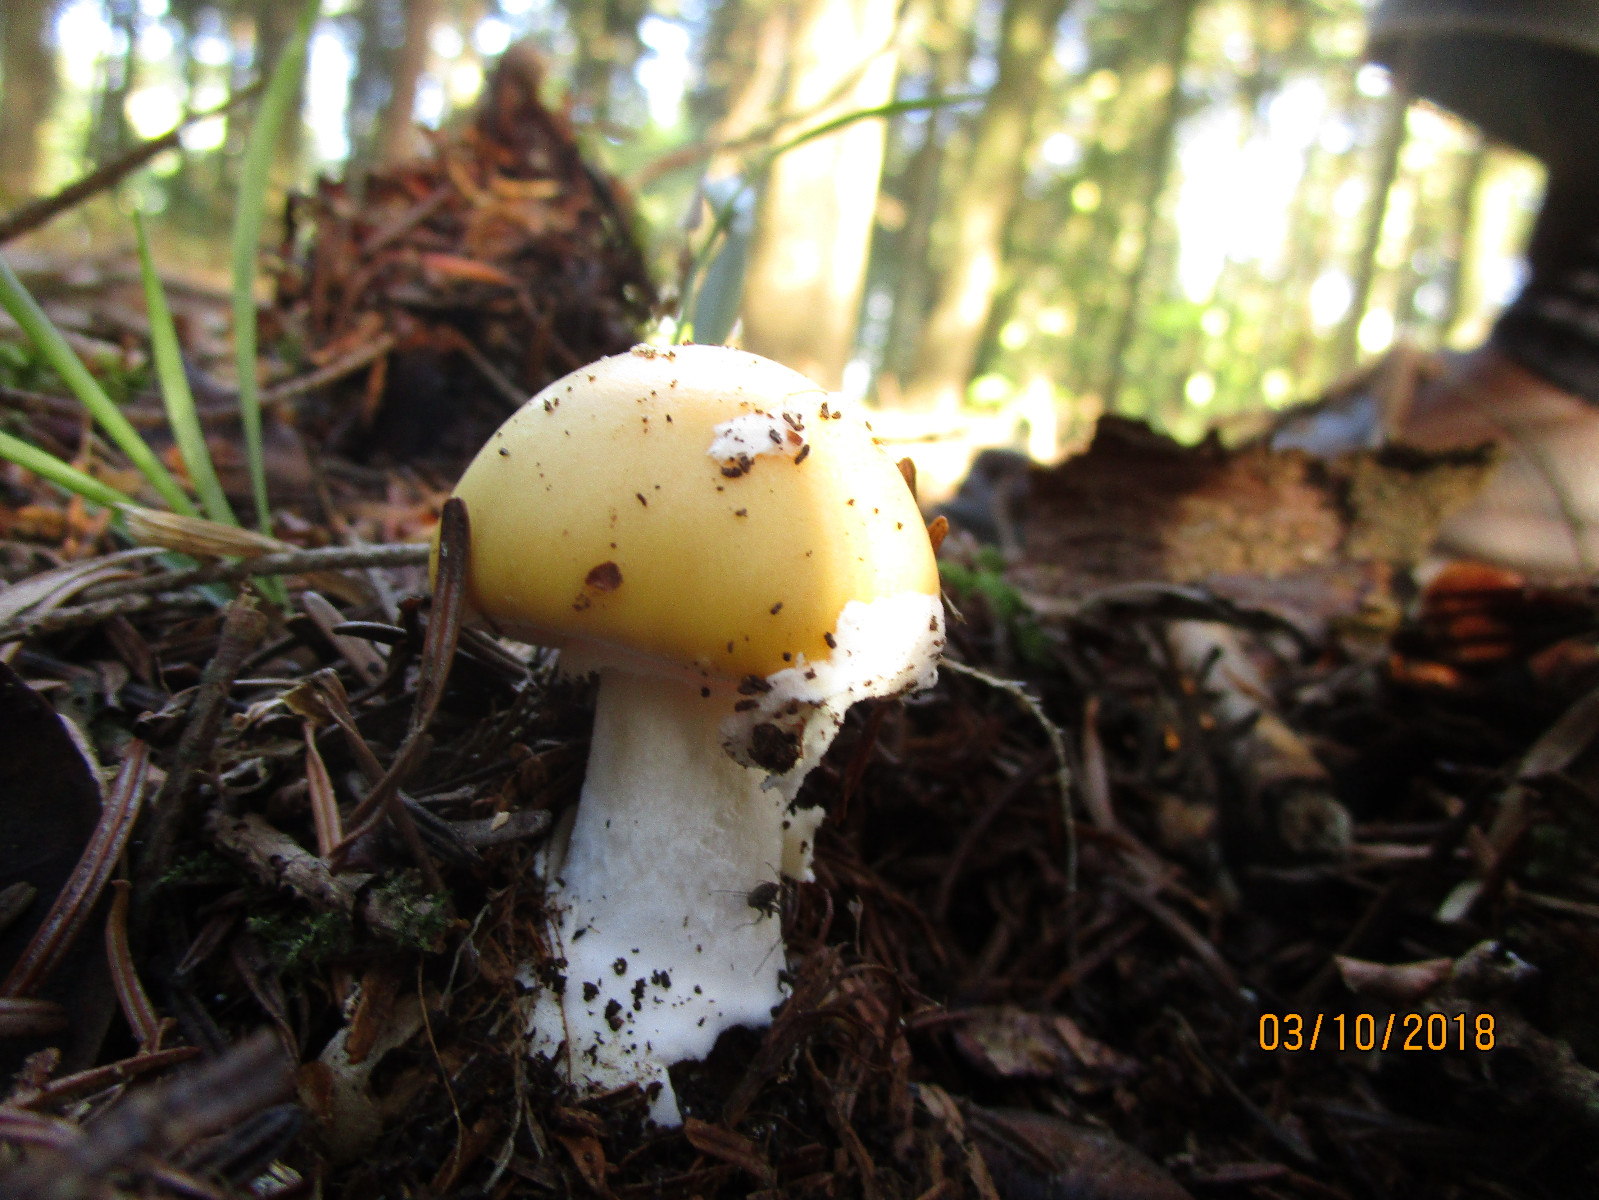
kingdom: Fungi
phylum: Basidiomycota
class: Agaricomycetes
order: Agaricales
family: Amanitaceae
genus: Amanita
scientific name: Amanita gemmata
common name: okkergul fluesvamp
